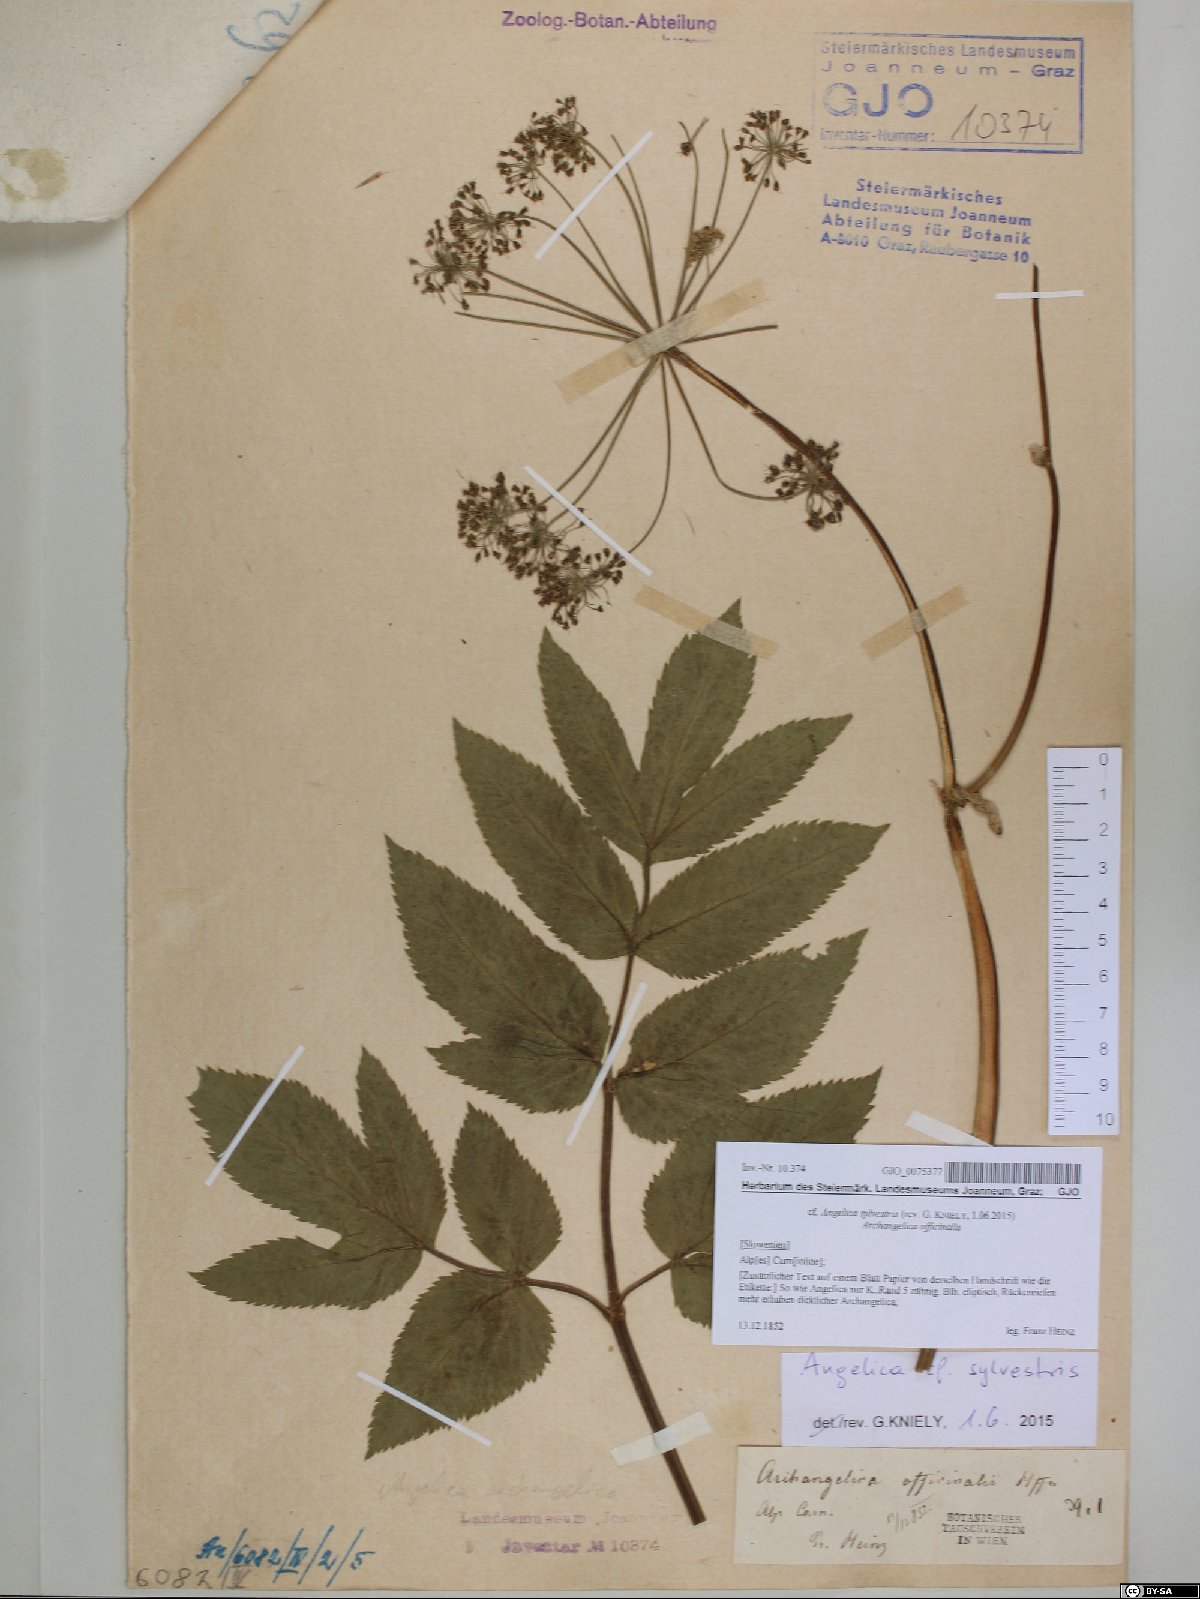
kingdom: Plantae
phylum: Tracheophyta
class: Magnoliopsida
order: Apiales
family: Apiaceae
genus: Angelica
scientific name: Angelica sylvestris
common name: Wild angelica
